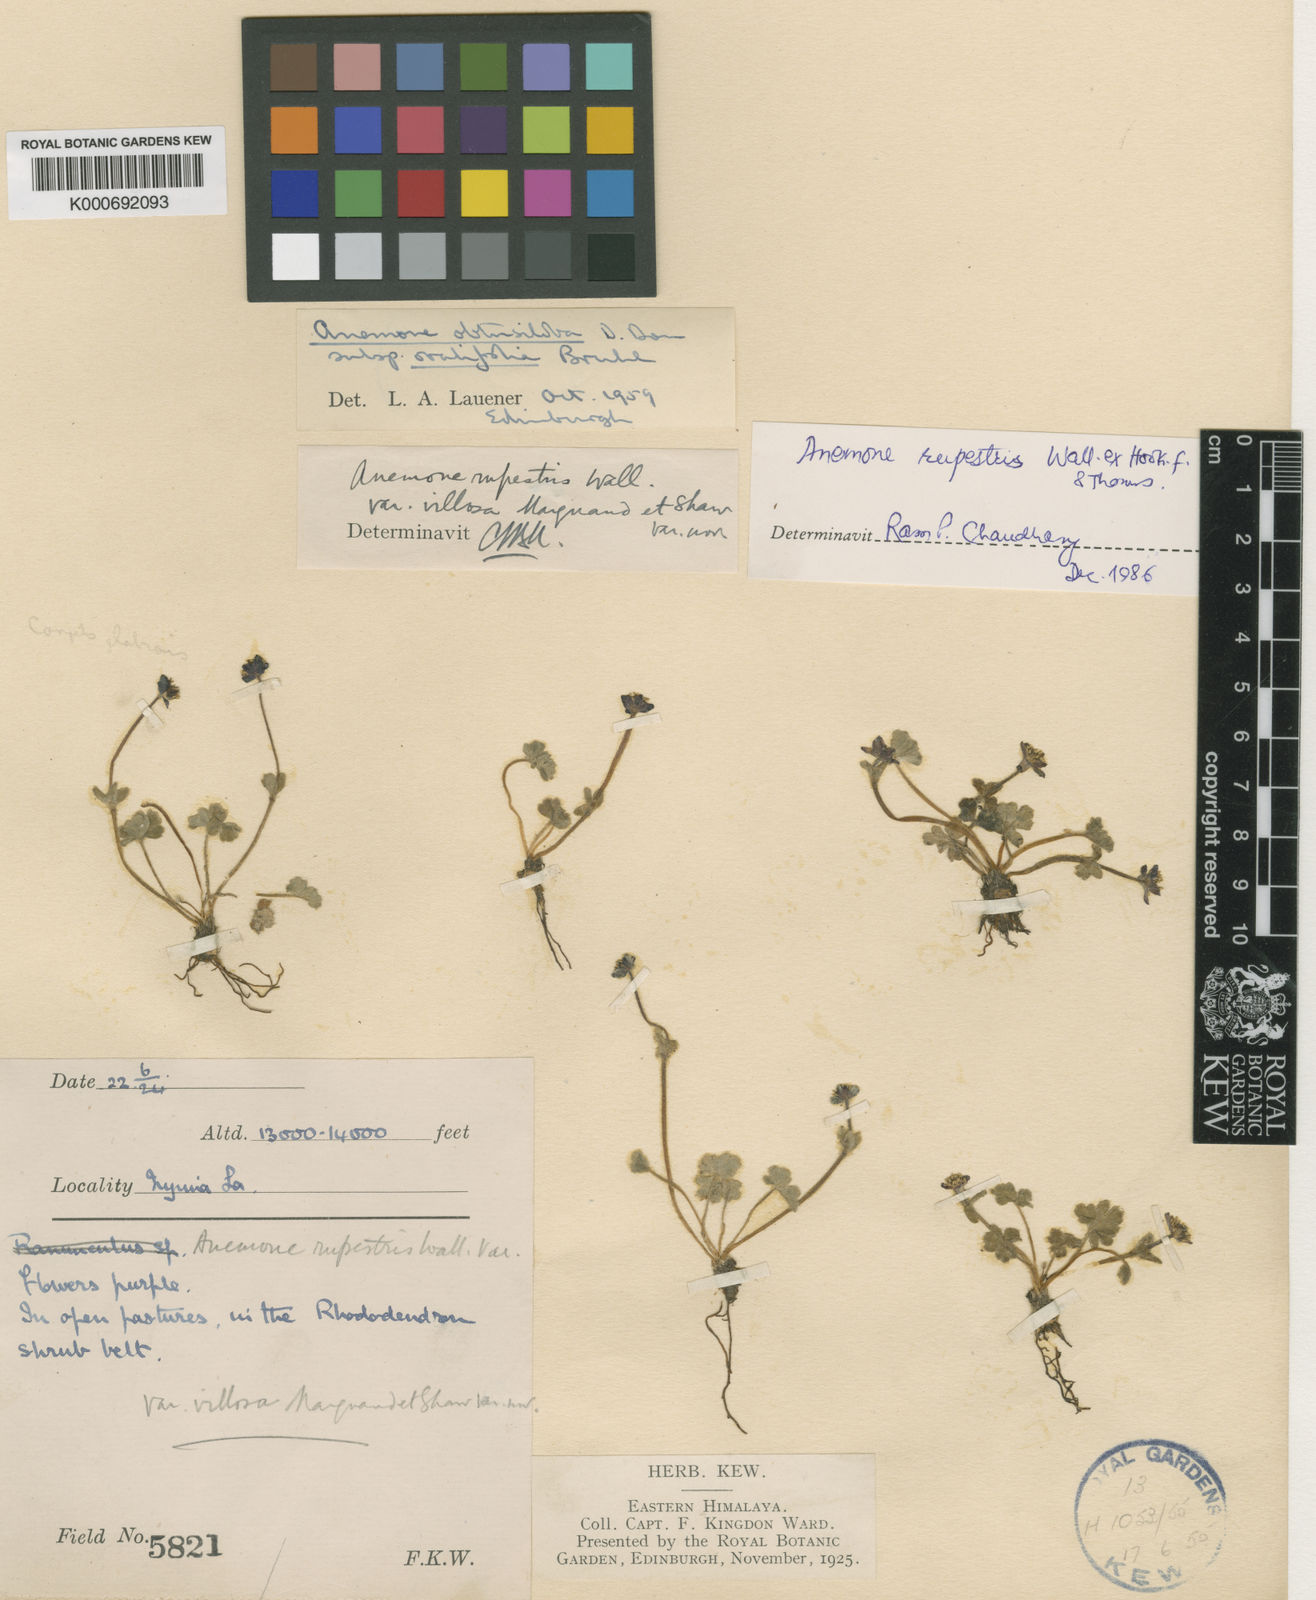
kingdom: Plantae
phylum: Tracheophyta
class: Magnoliopsida
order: Ranunculales
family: Ranunculaceae
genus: Anemonastrum
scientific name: Anemonastrum obtusilobum
